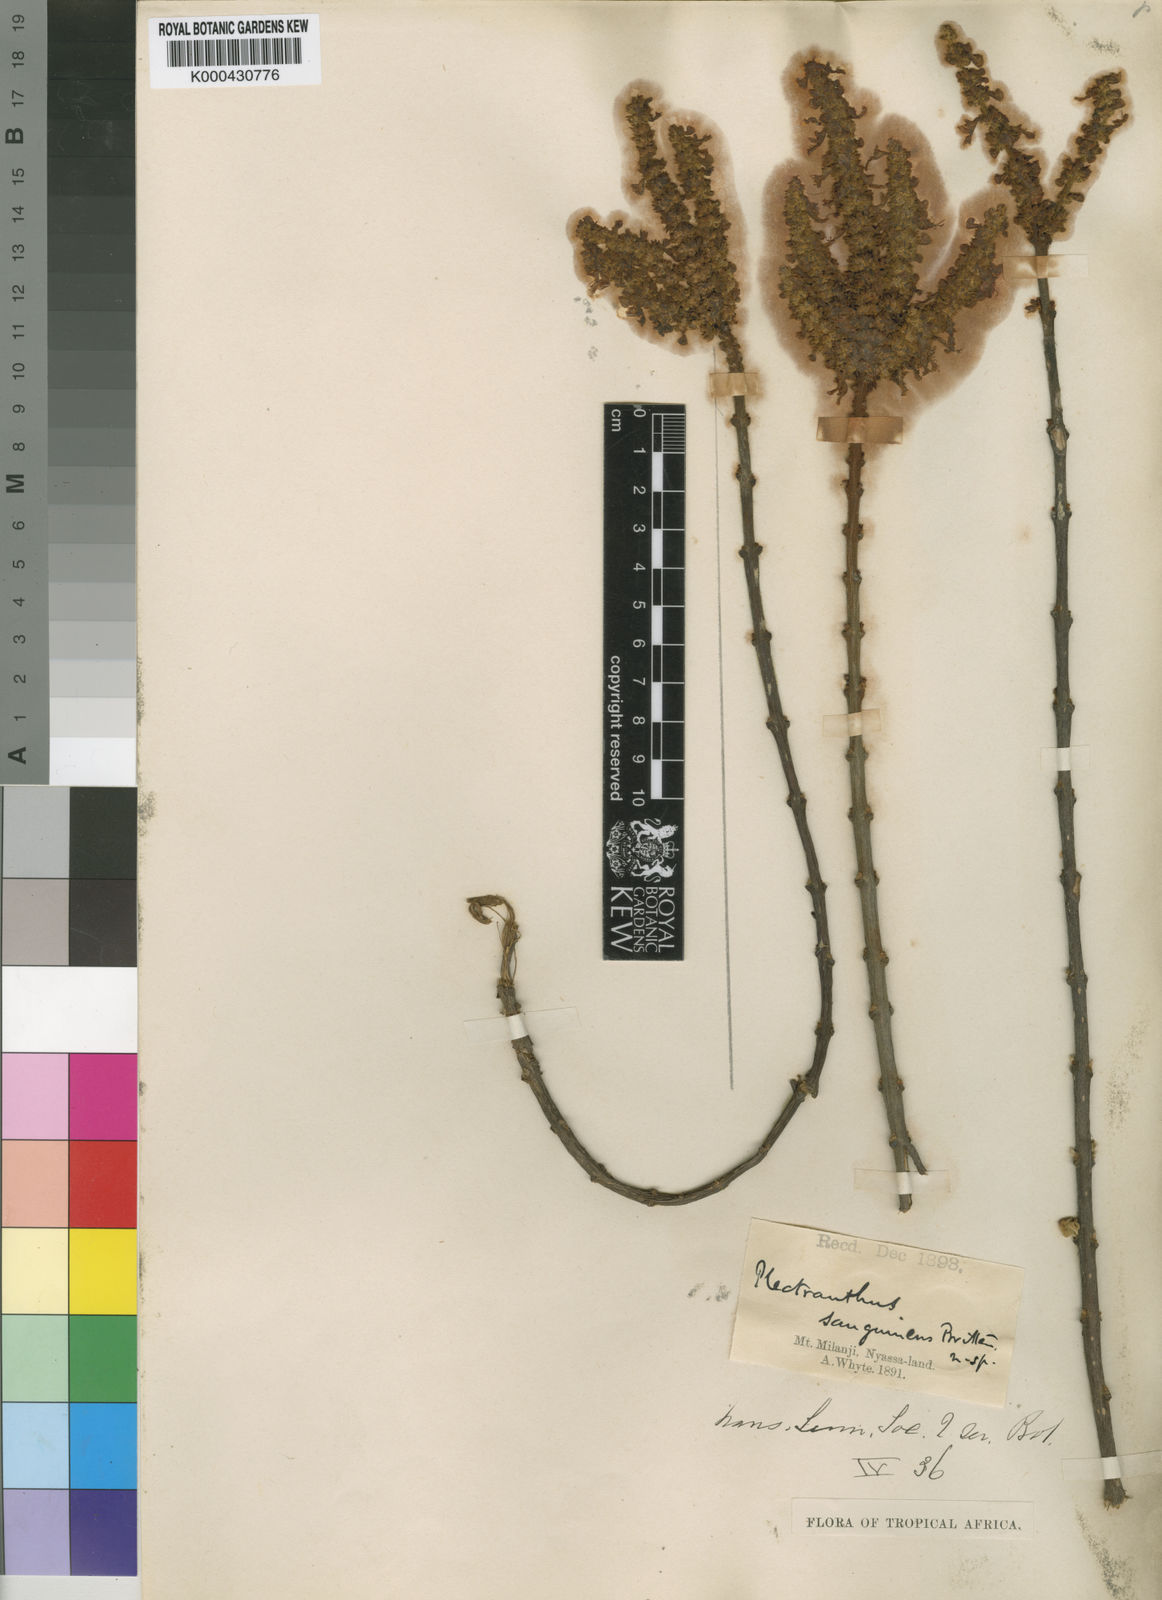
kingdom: Plantae
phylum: Tracheophyta
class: Magnoliopsida
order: Lamiales
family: Lamiaceae
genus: Coleus
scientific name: Coleus sanguineus
